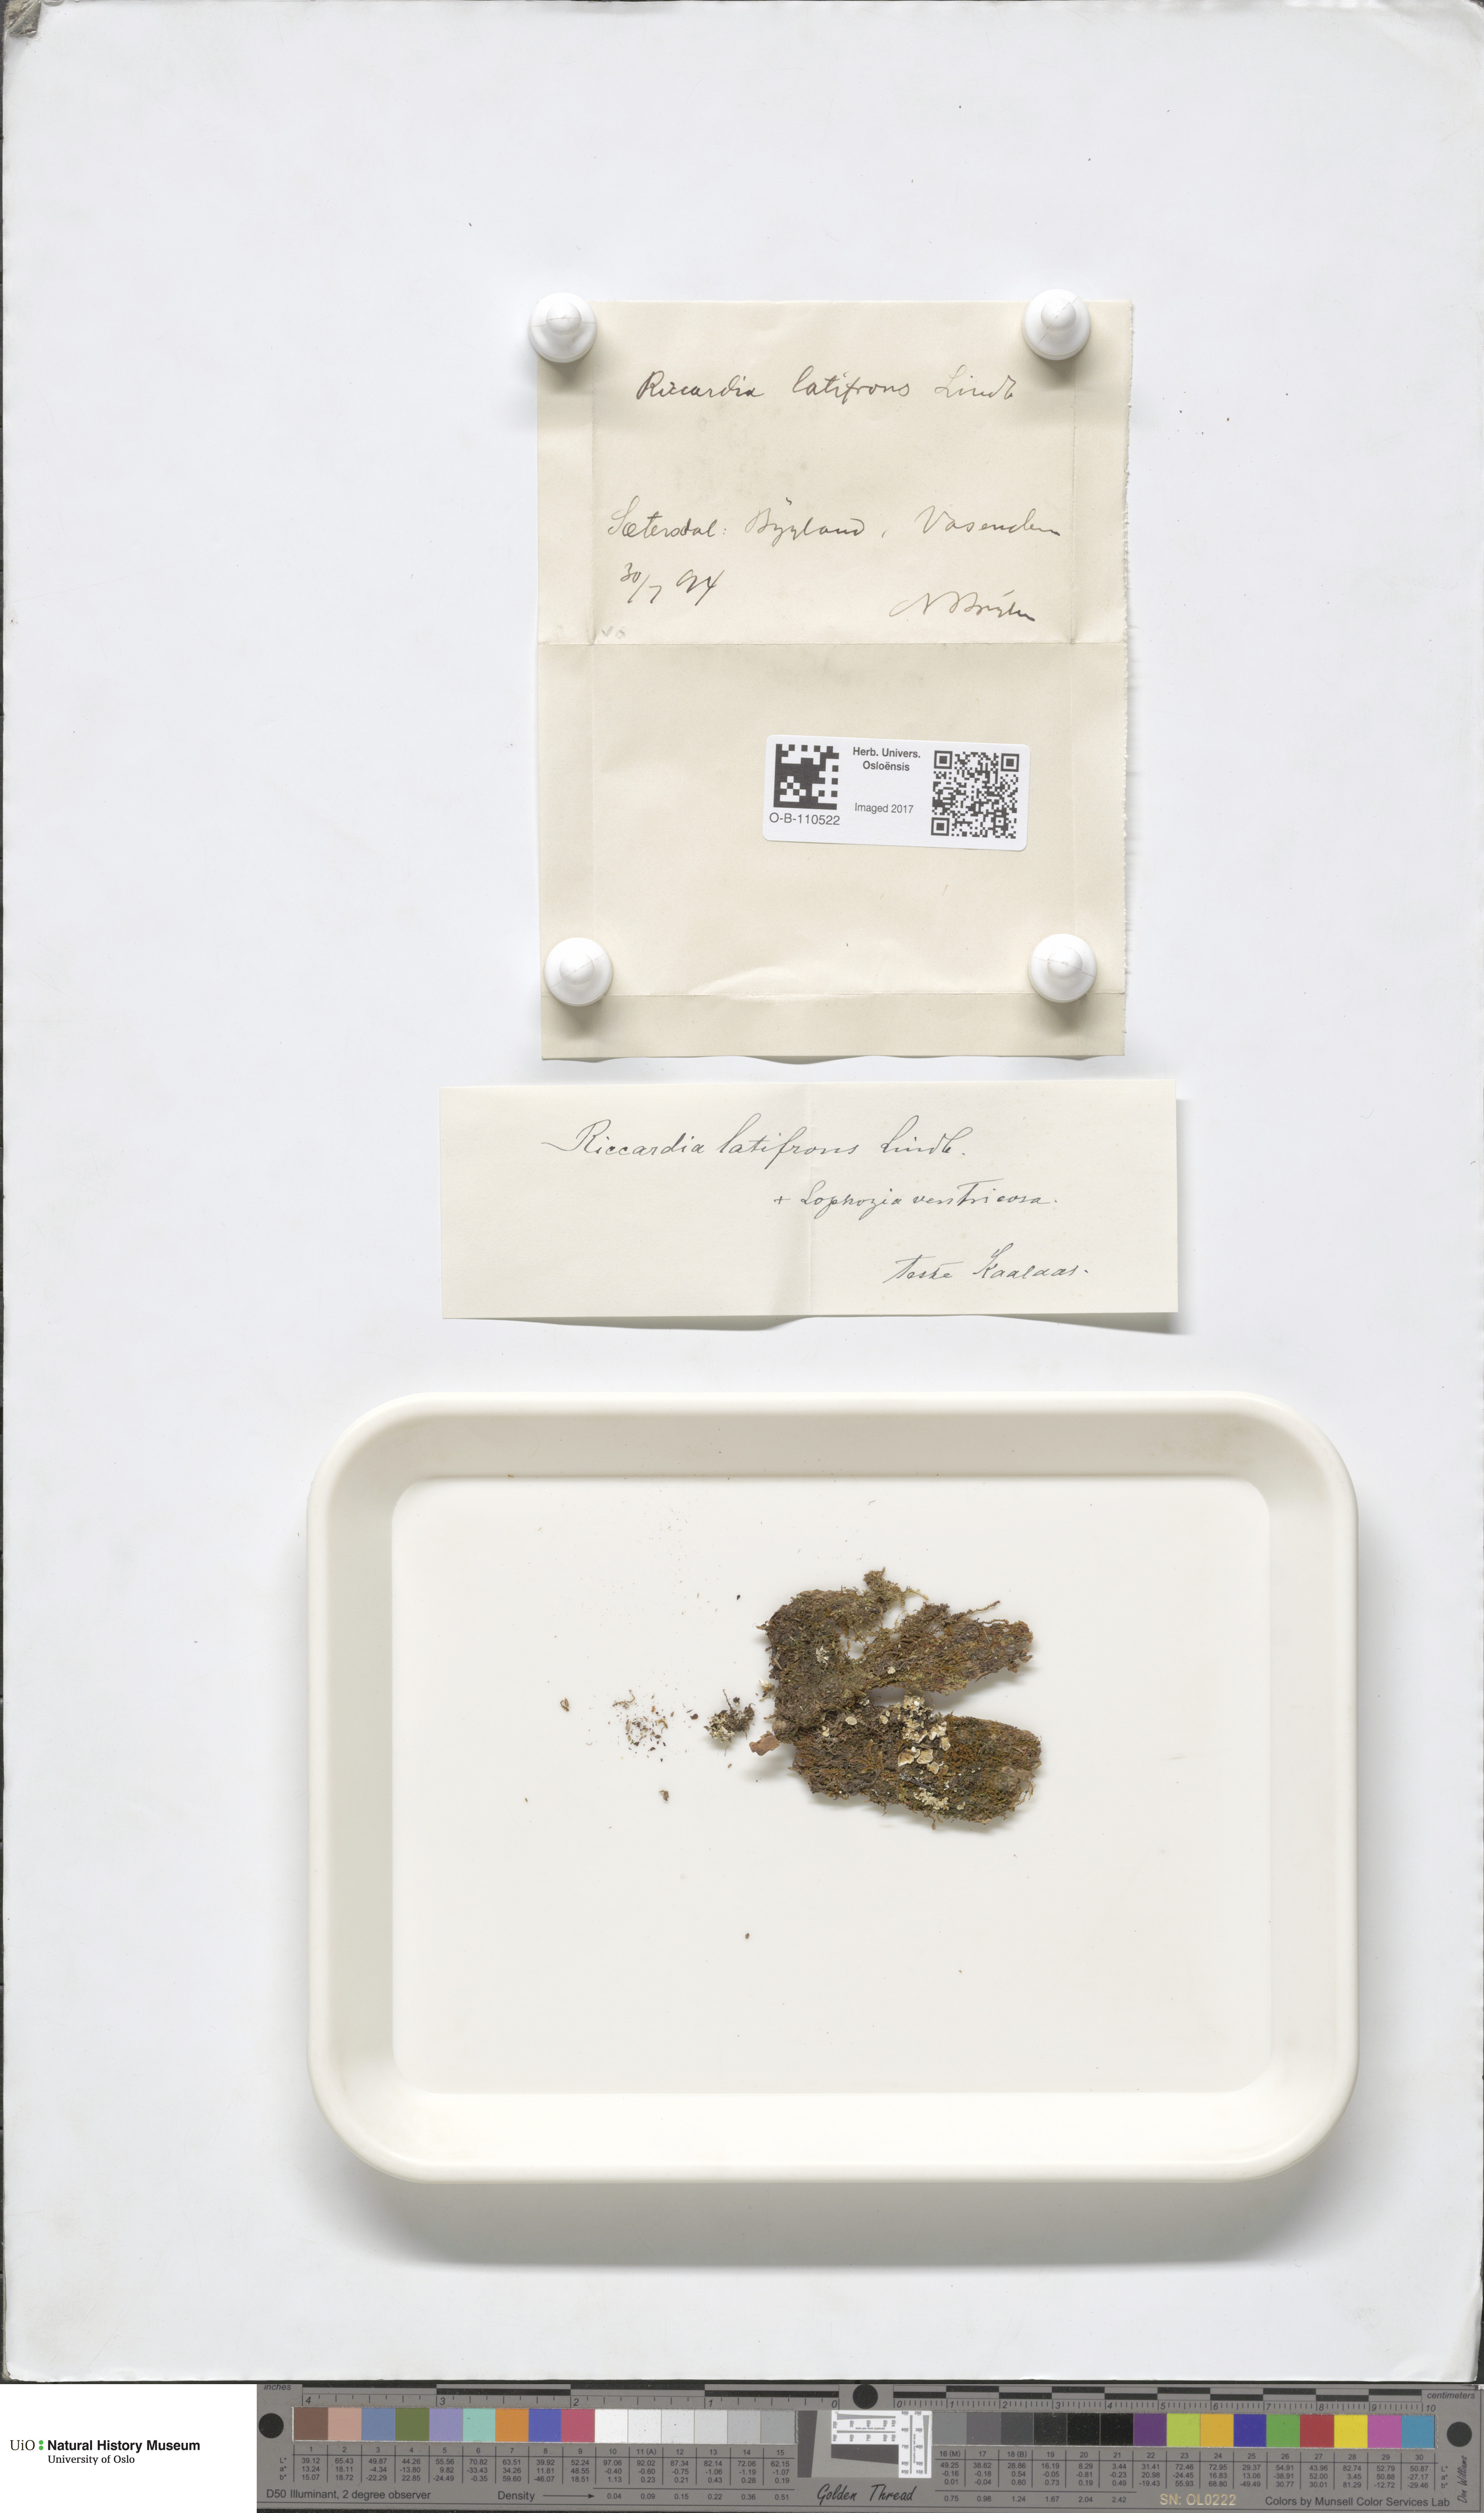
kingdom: Plantae
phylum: Marchantiophyta
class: Jungermanniopsida
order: Metzgeriales
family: Aneuraceae
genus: Riccardia
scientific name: Riccardia latifrons
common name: Bog germanderwort
